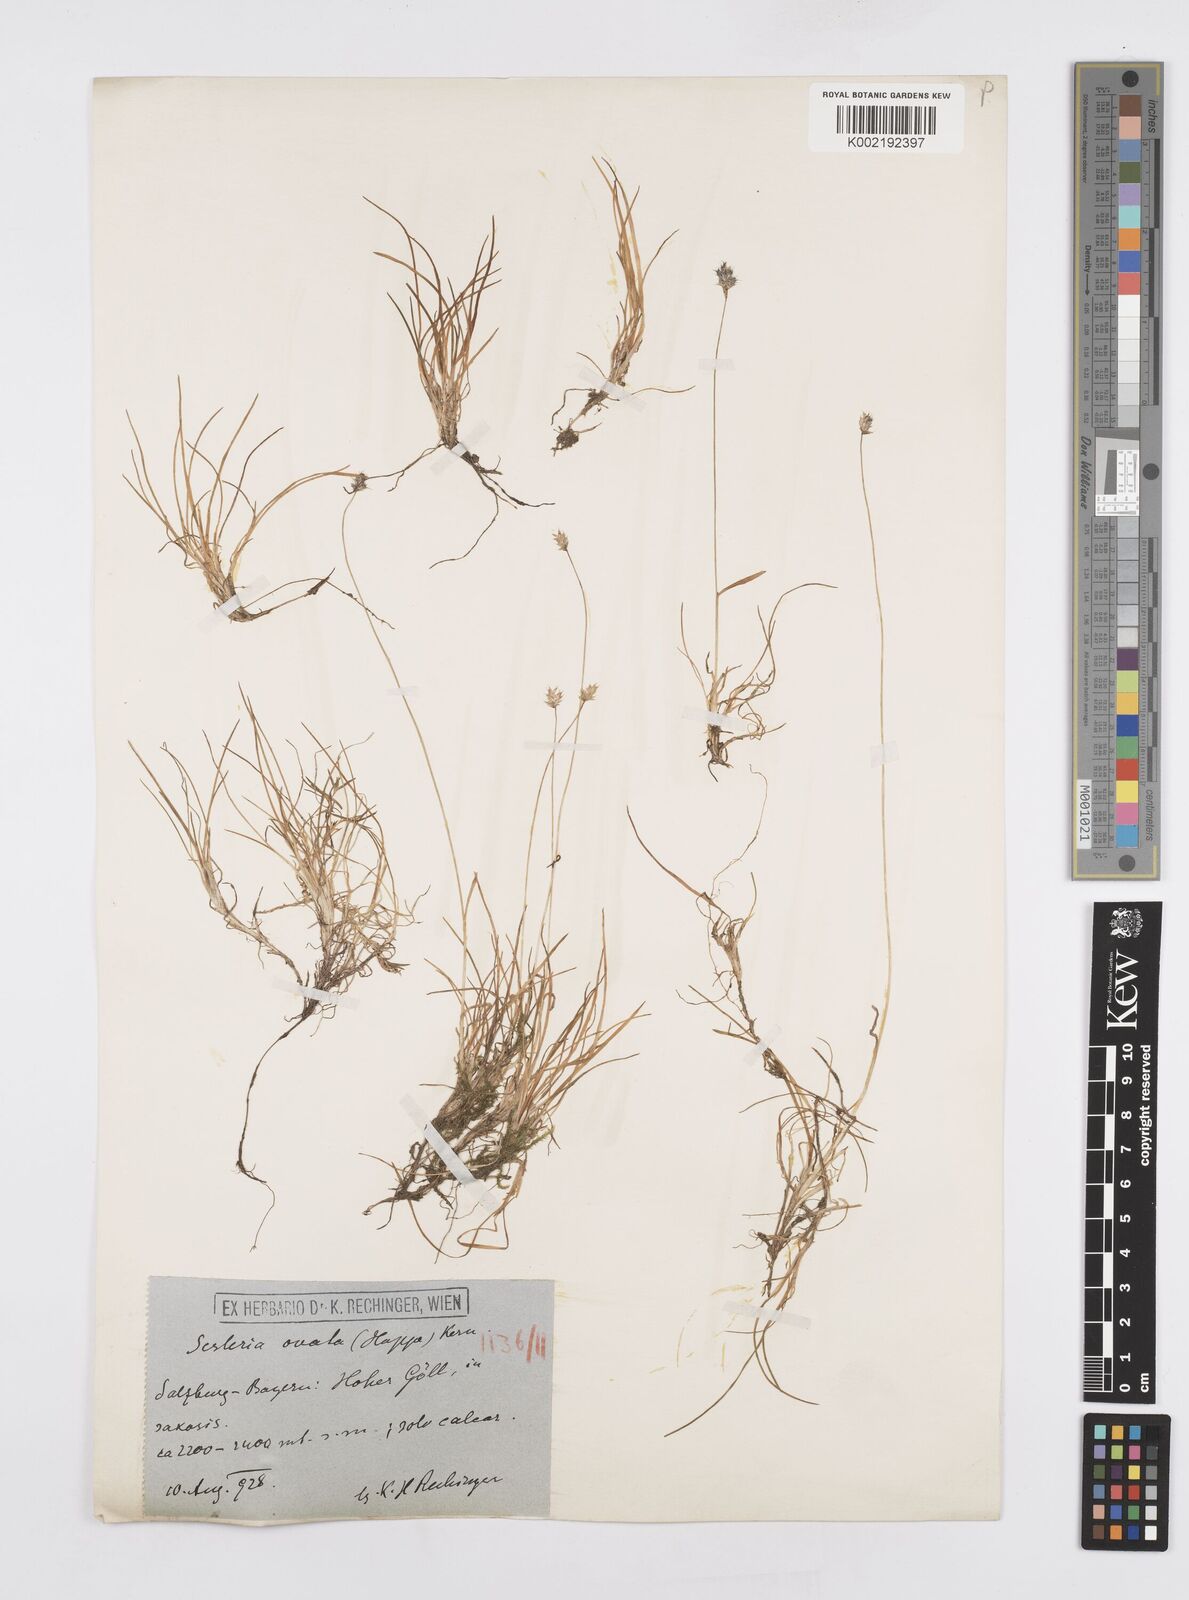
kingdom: Plantae
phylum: Tracheophyta
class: Liliopsida
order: Poales
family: Poaceae
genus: Psilathera
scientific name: Psilathera ovata
